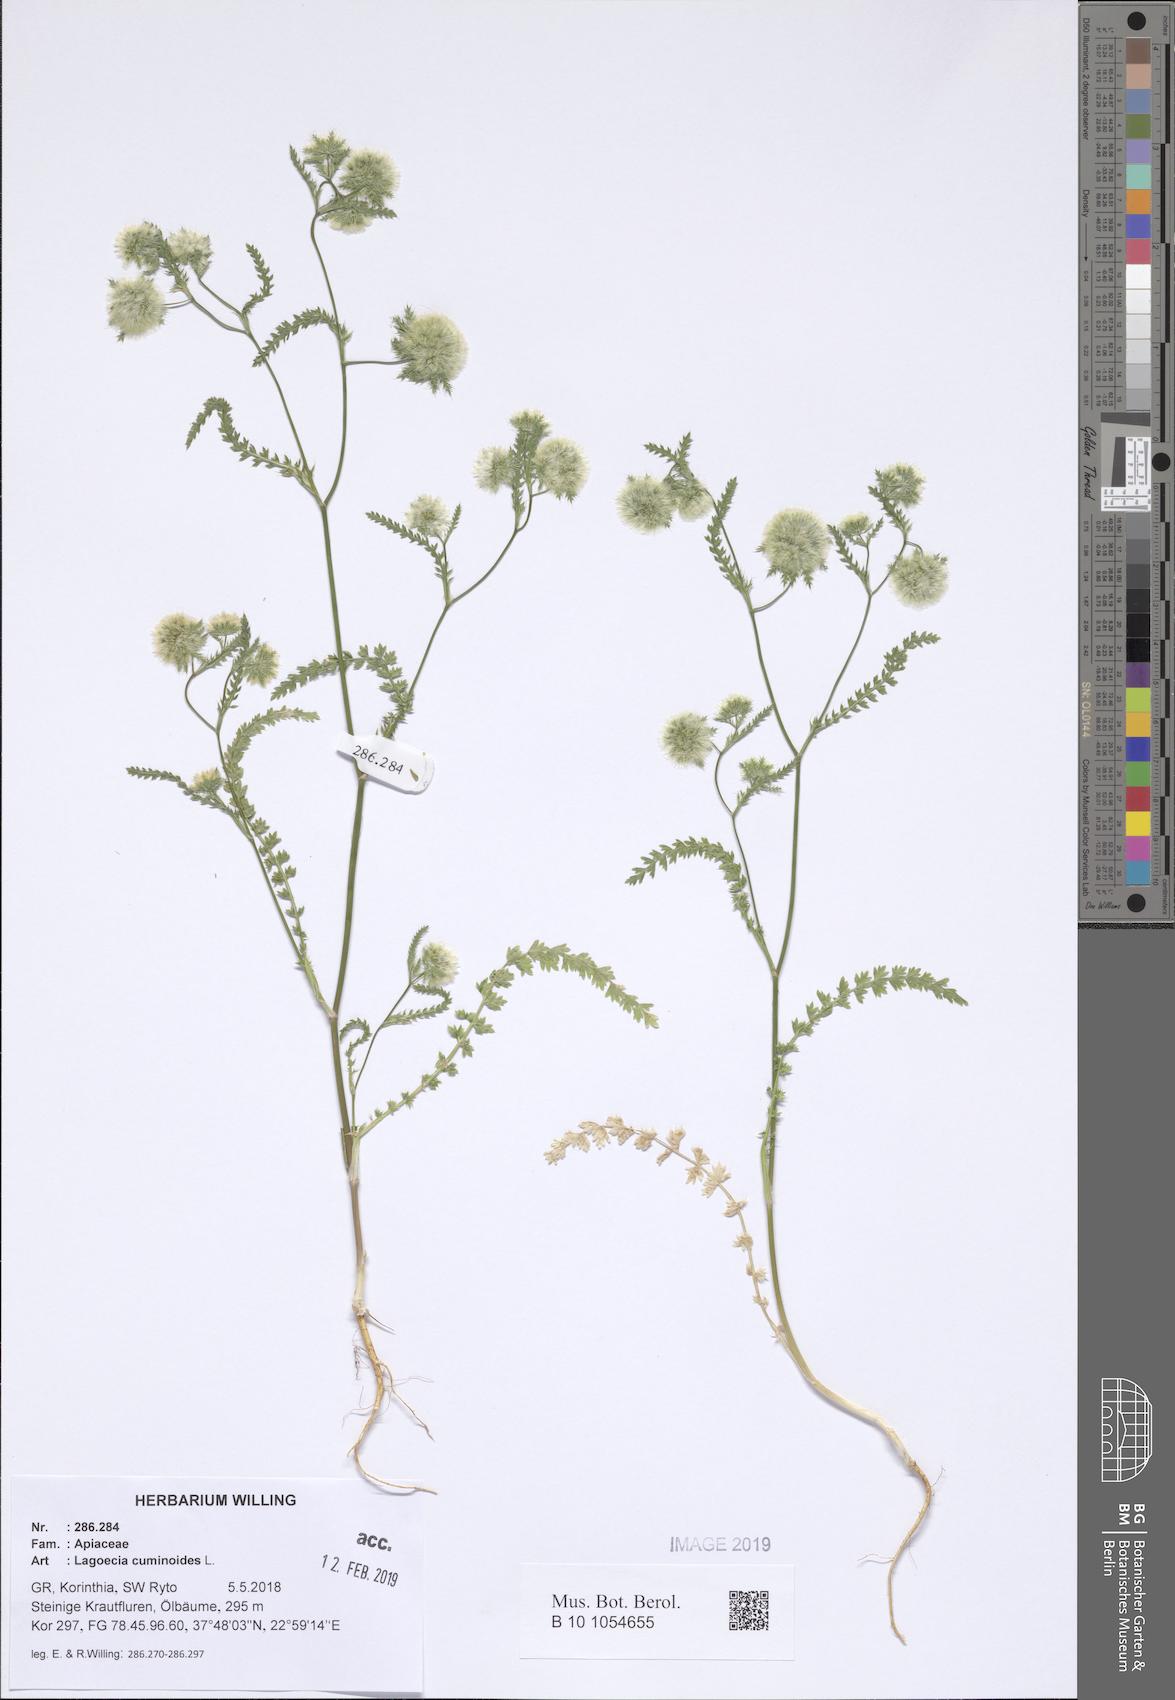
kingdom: Plantae
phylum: Tracheophyta
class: Magnoliopsida
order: Apiales
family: Apiaceae
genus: Lagoecia
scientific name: Lagoecia cuminoides
